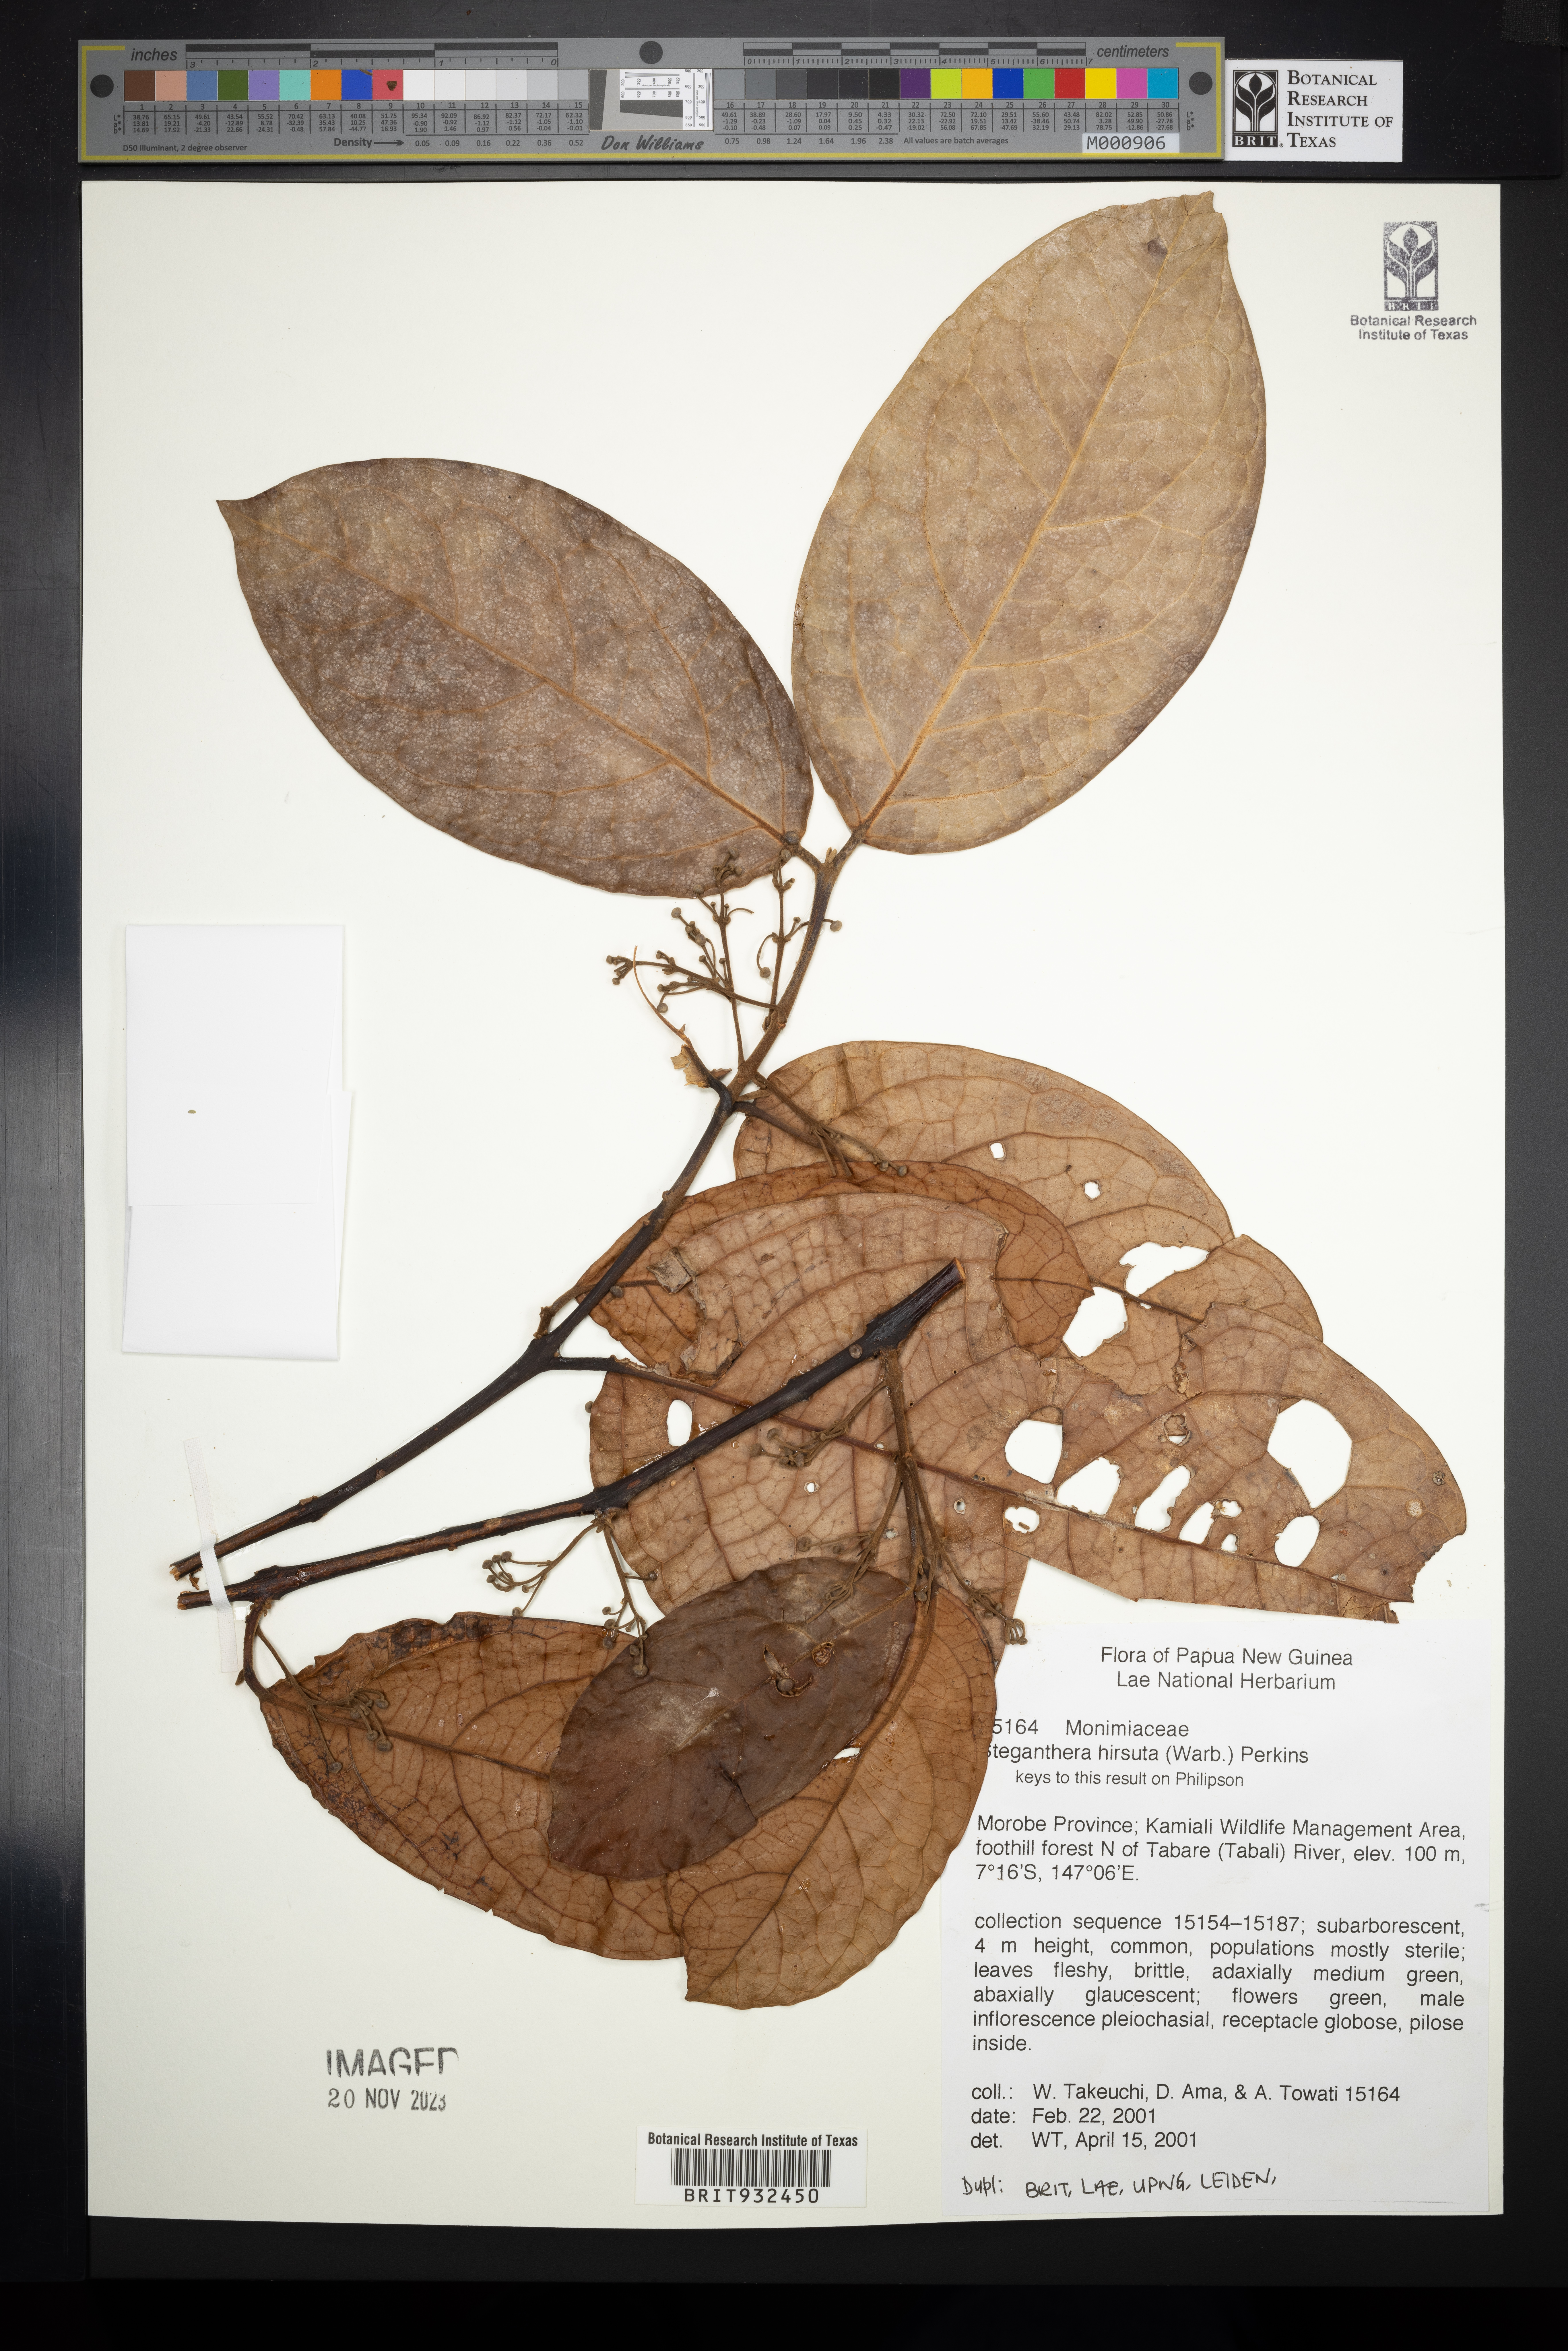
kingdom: Plantae
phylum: Tracheophyta
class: Magnoliopsida
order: Laurales
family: Monimiaceae
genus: Steganthera
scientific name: Steganthera
